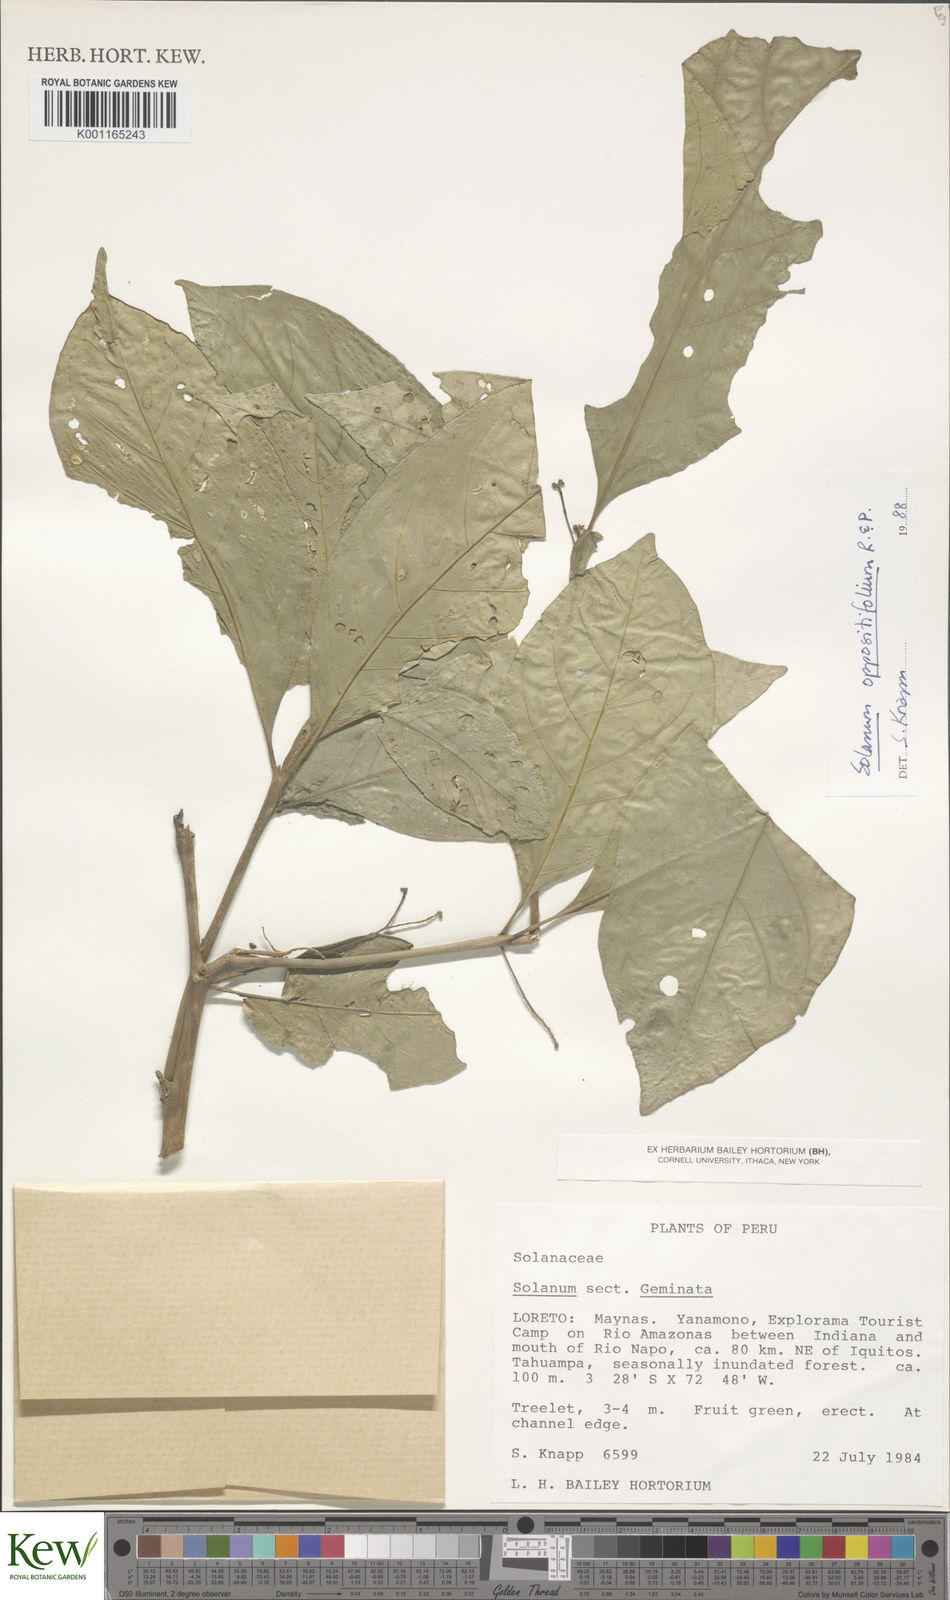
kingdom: Plantae
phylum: Tracheophyta
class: Magnoliopsida
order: Solanales
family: Solanaceae
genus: Solanum
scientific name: Solanum oppositifolium
